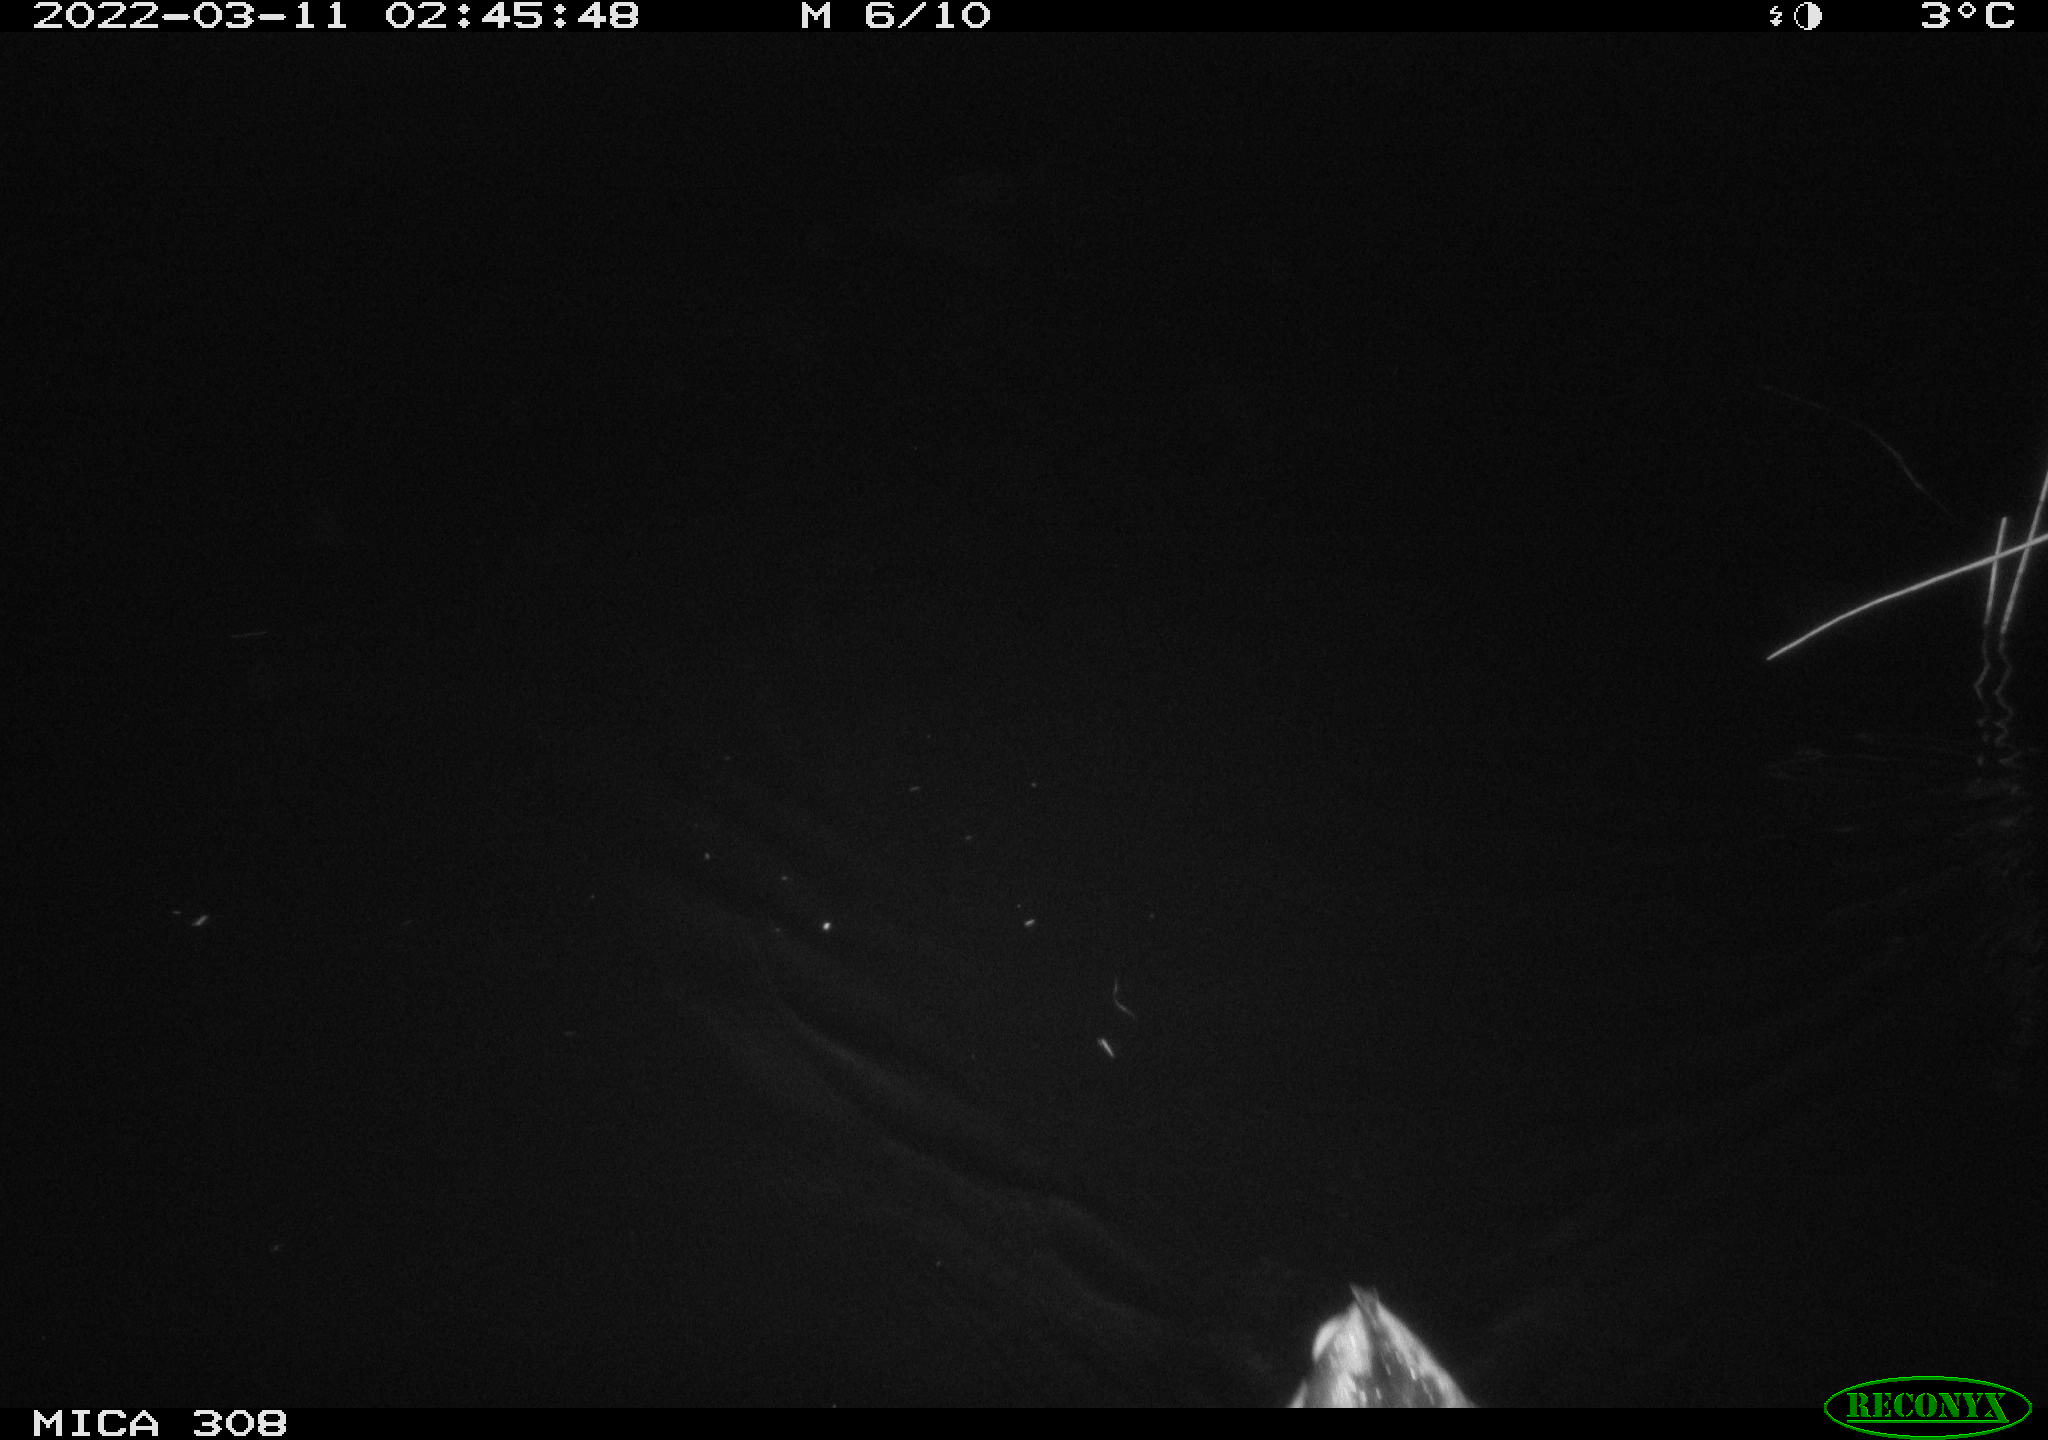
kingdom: Animalia
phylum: Chordata
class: Aves
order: Anseriformes
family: Anatidae
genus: Anas
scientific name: Anas platyrhynchos
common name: Mallard
